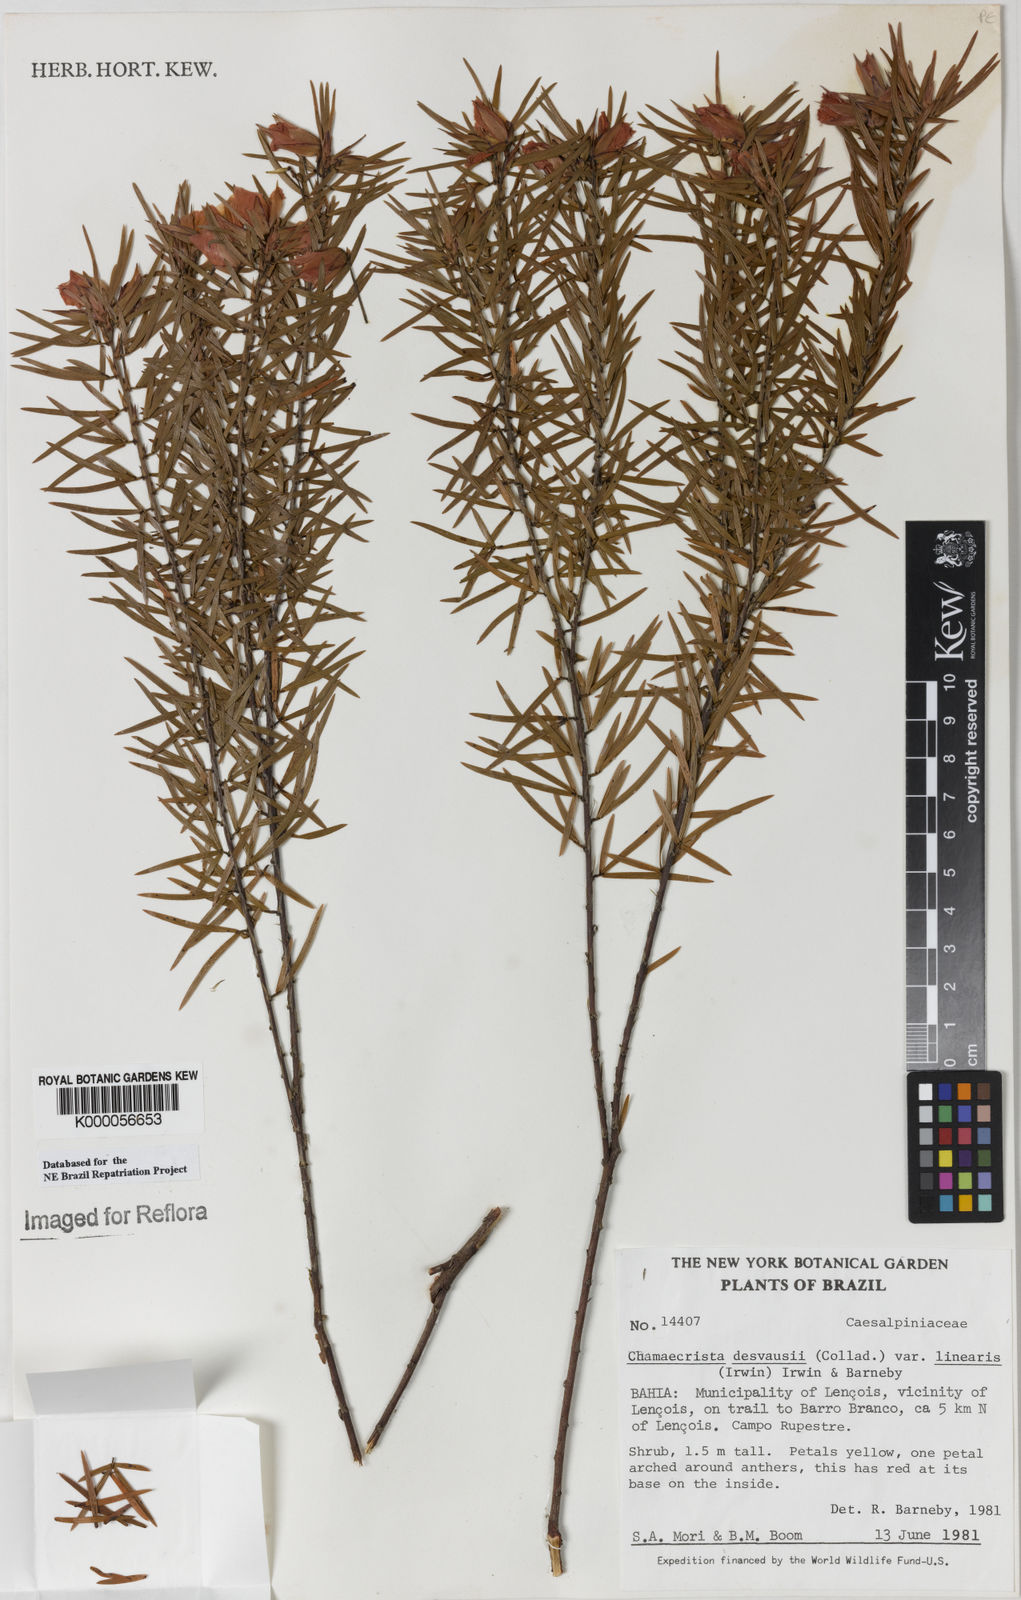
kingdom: Plantae
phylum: Tracheophyta
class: Magnoliopsida
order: Fabales
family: Fabaceae
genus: Chamaecrista
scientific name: Chamaecrista desvauxii
